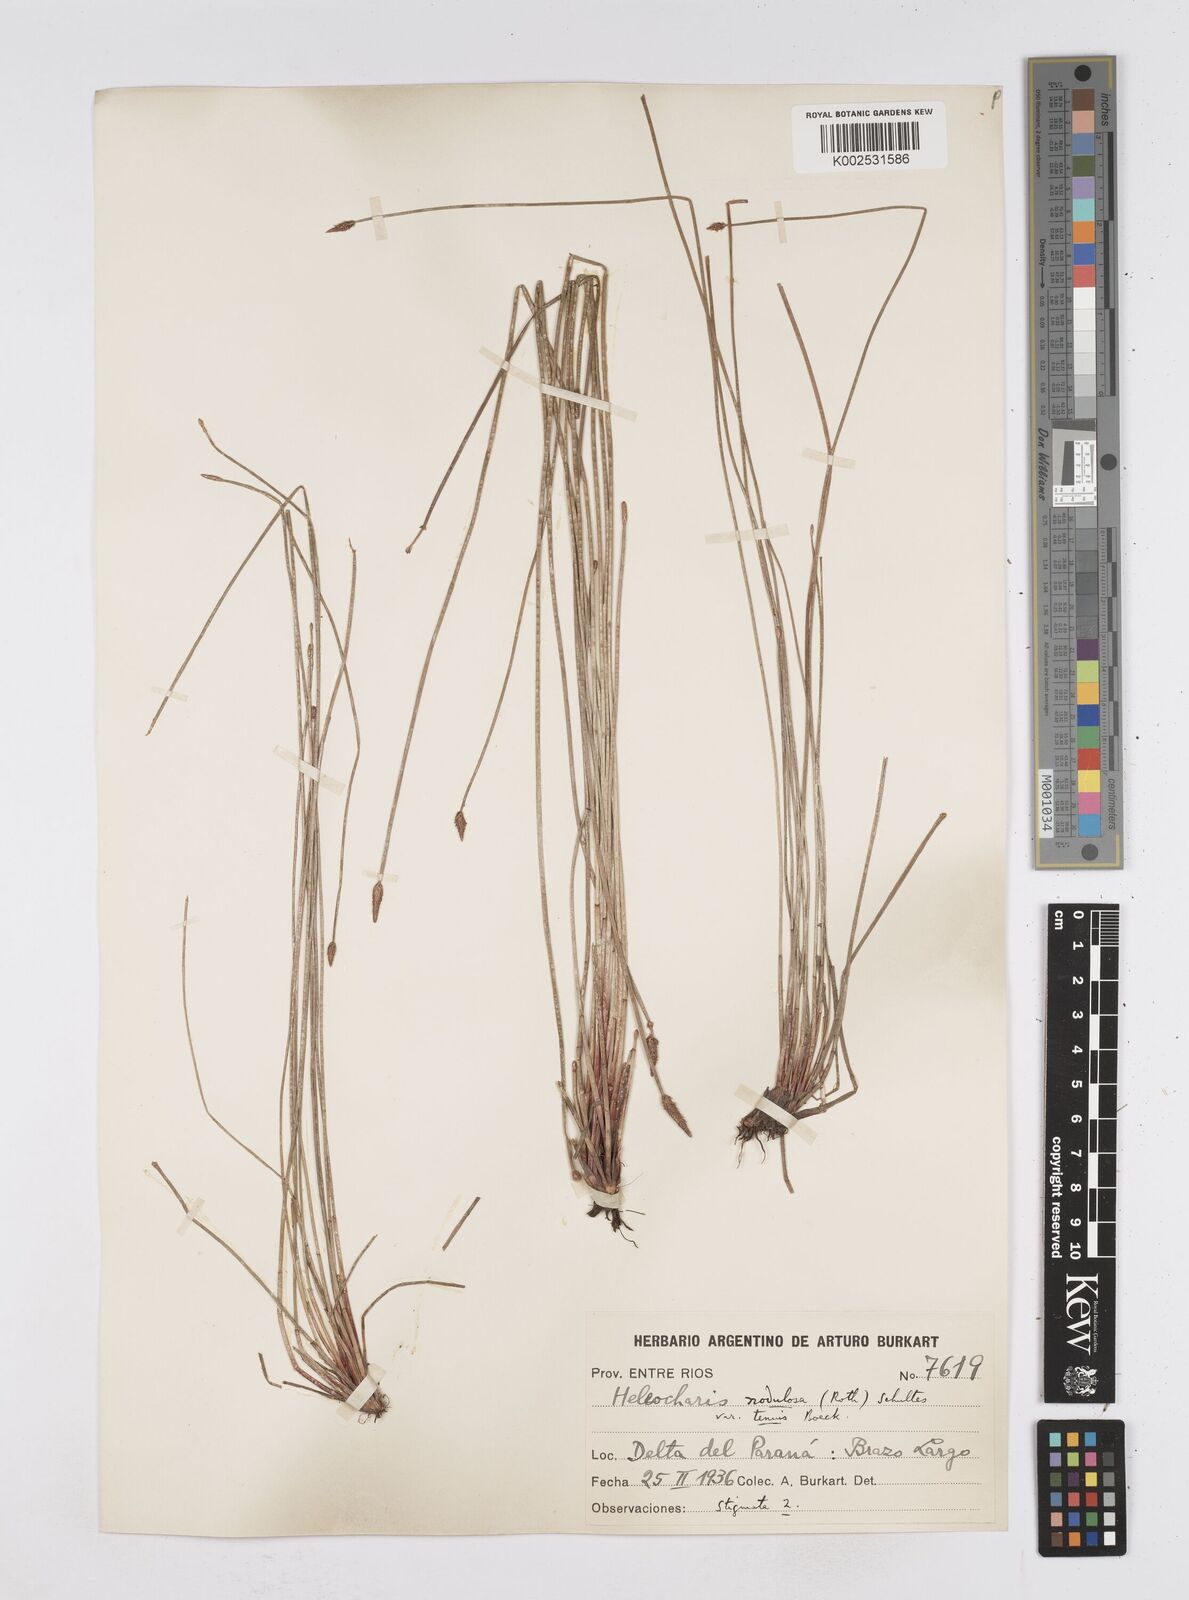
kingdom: Plantae
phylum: Tracheophyta
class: Liliopsida
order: Poales
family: Cyperaceae
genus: Eleocharis
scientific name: Eleocharis montana
